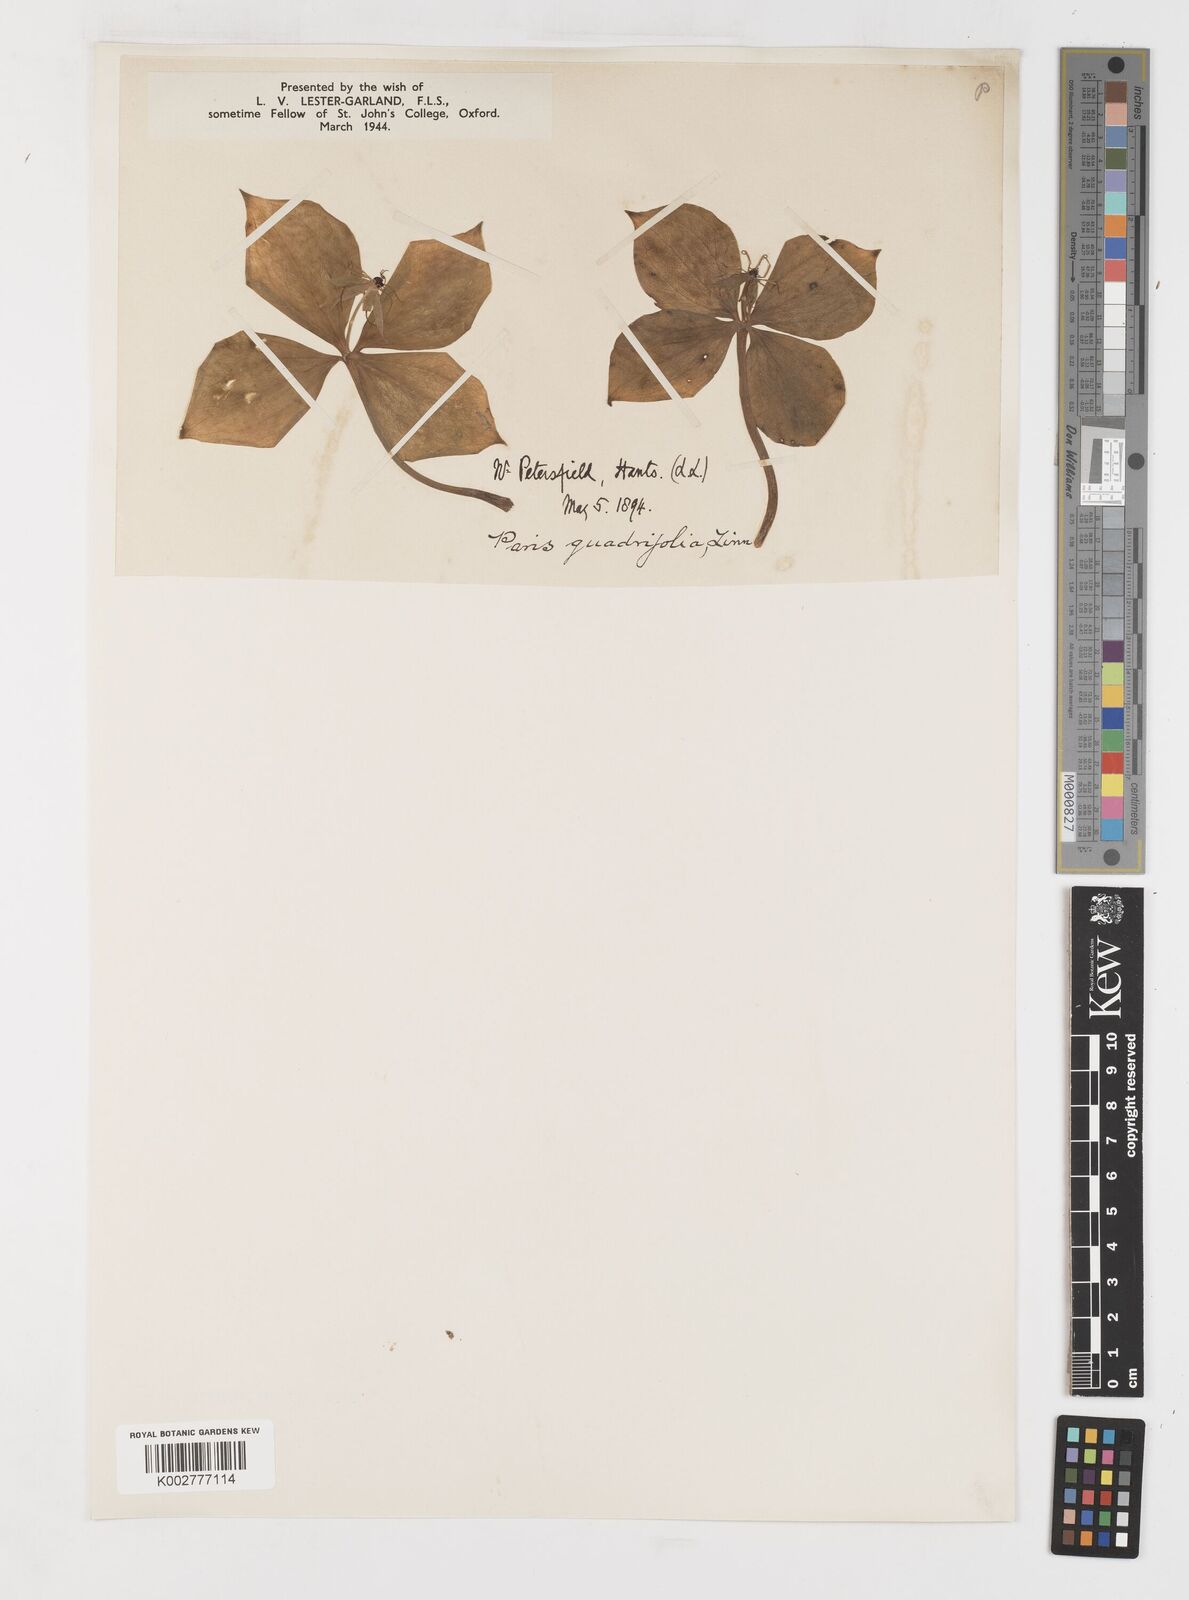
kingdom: Plantae
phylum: Tracheophyta
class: Liliopsida
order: Liliales
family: Melanthiaceae
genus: Paris
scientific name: Paris quadrifolia
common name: Herb-paris
